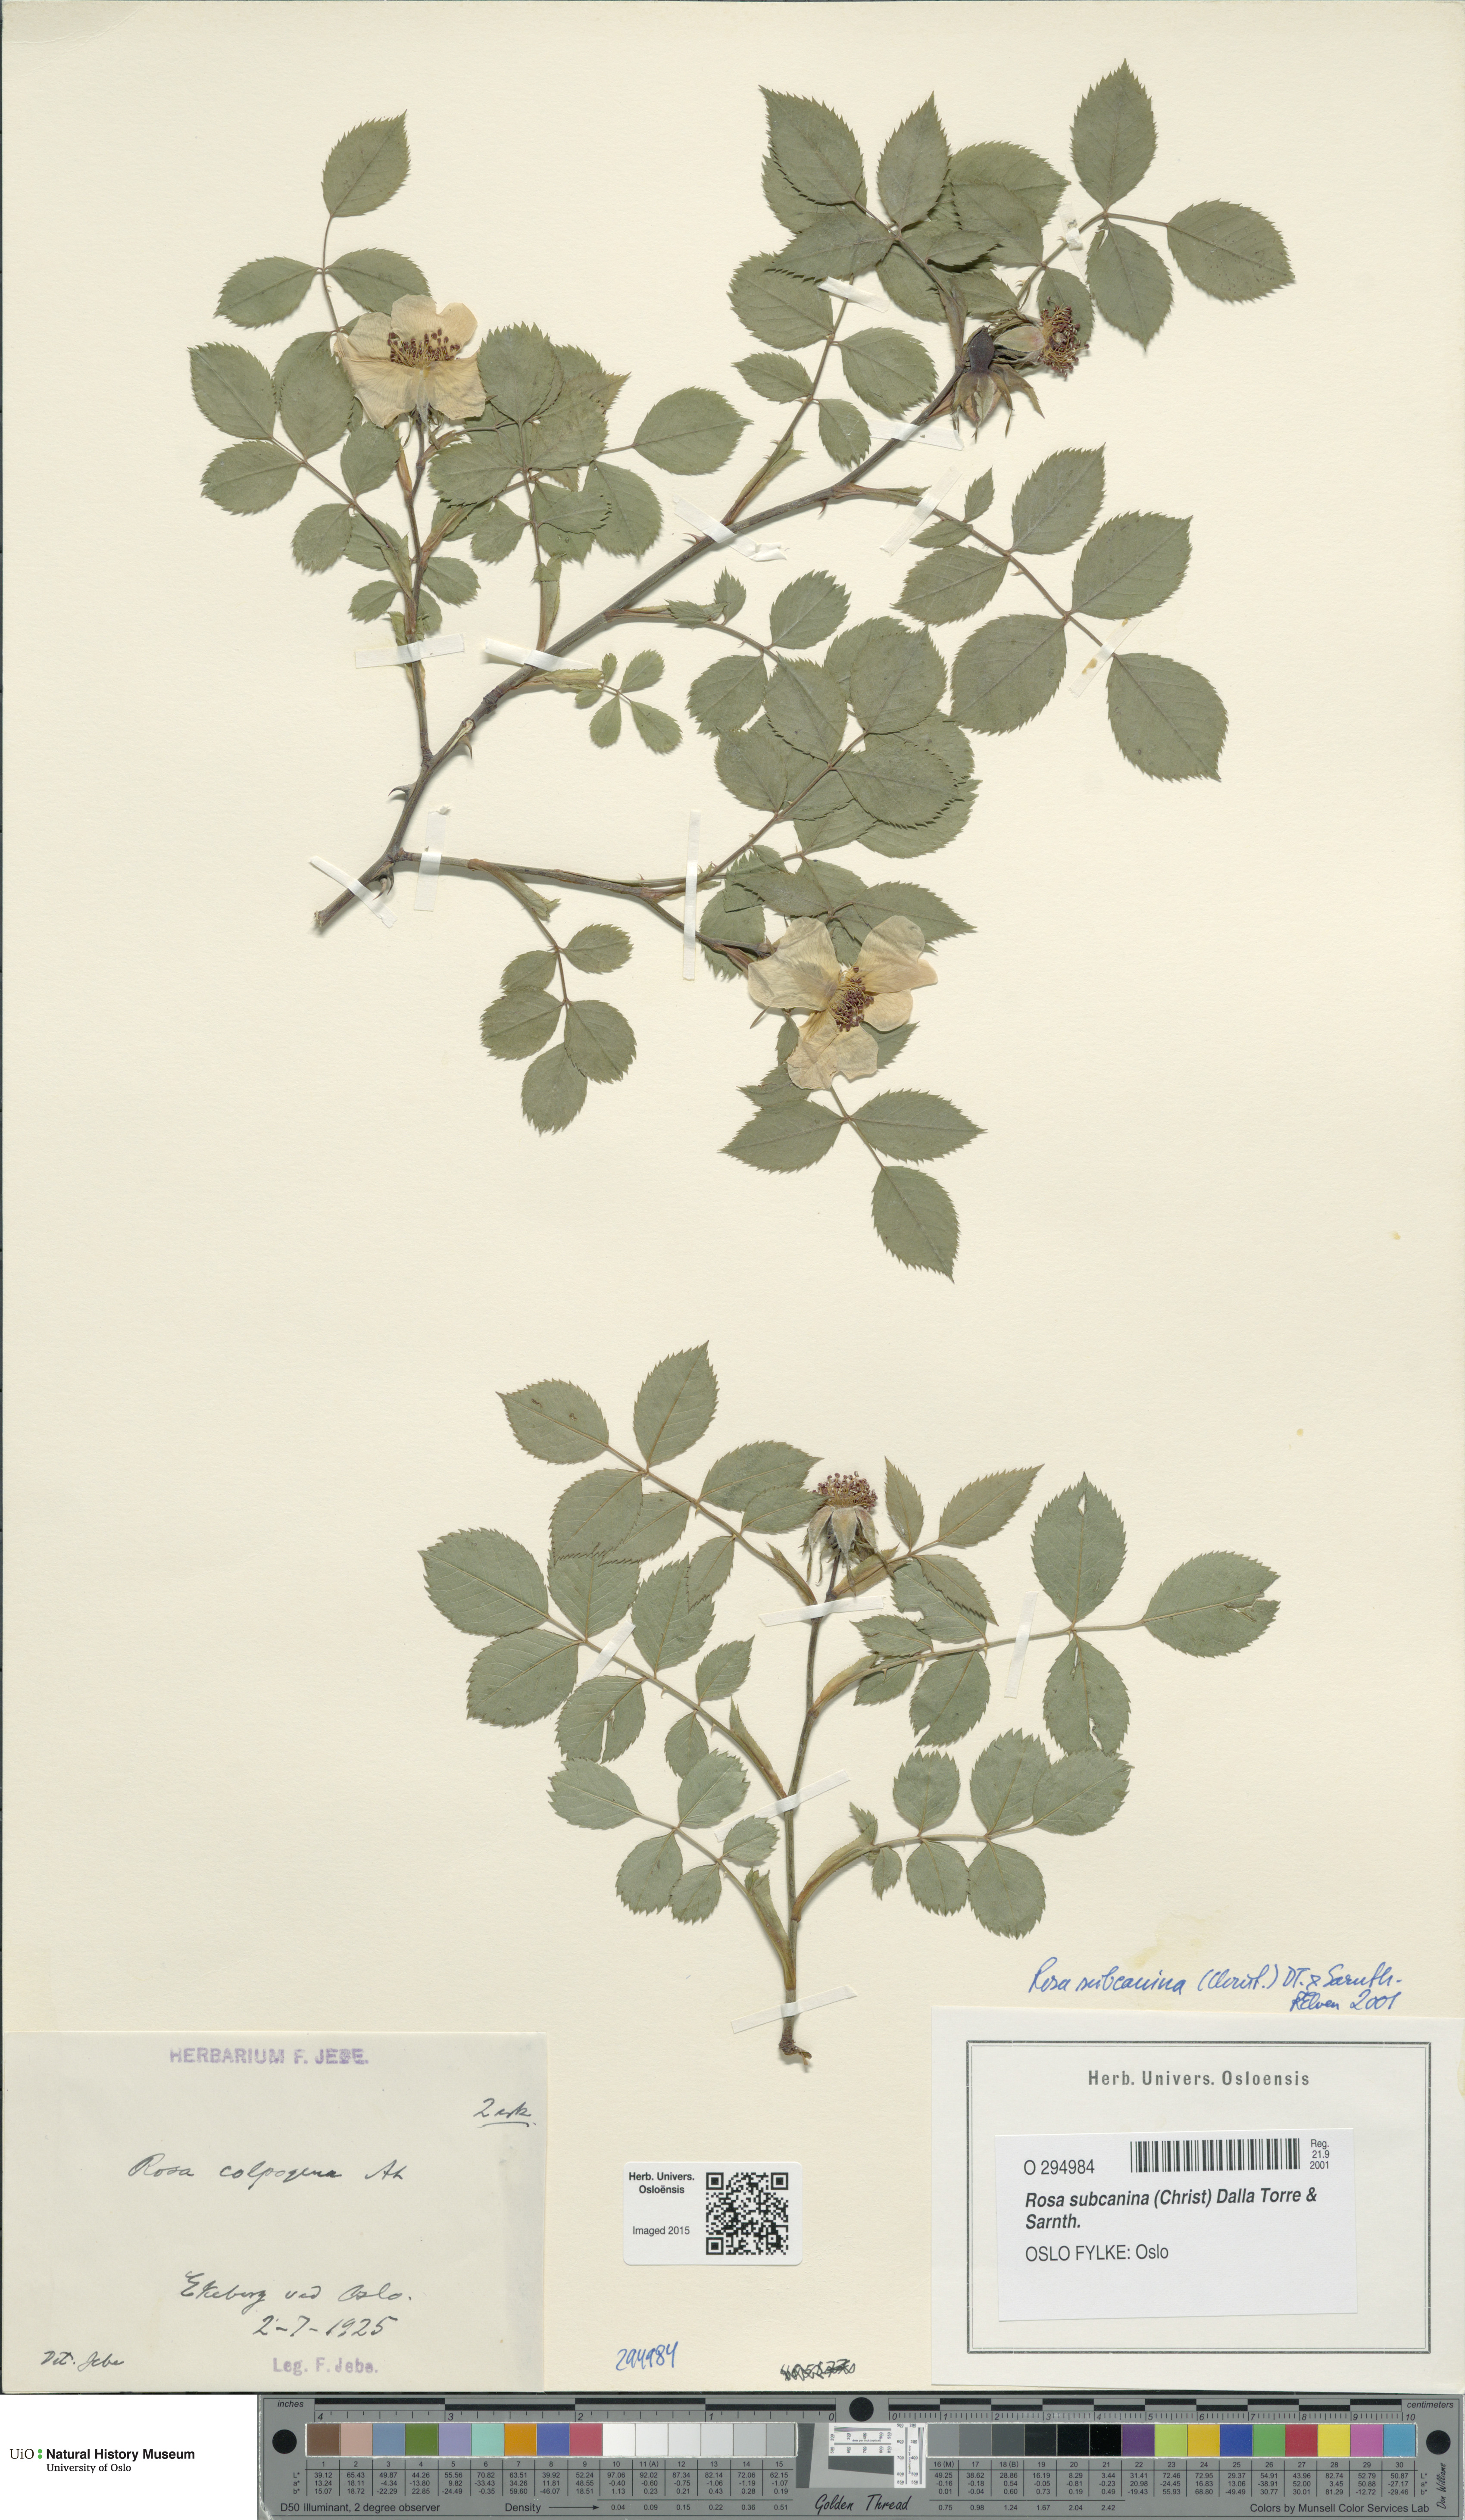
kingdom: Plantae
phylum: Tracheophyta
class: Magnoliopsida
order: Rosales
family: Rosaceae
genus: Rosa
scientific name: Rosa subcanina
